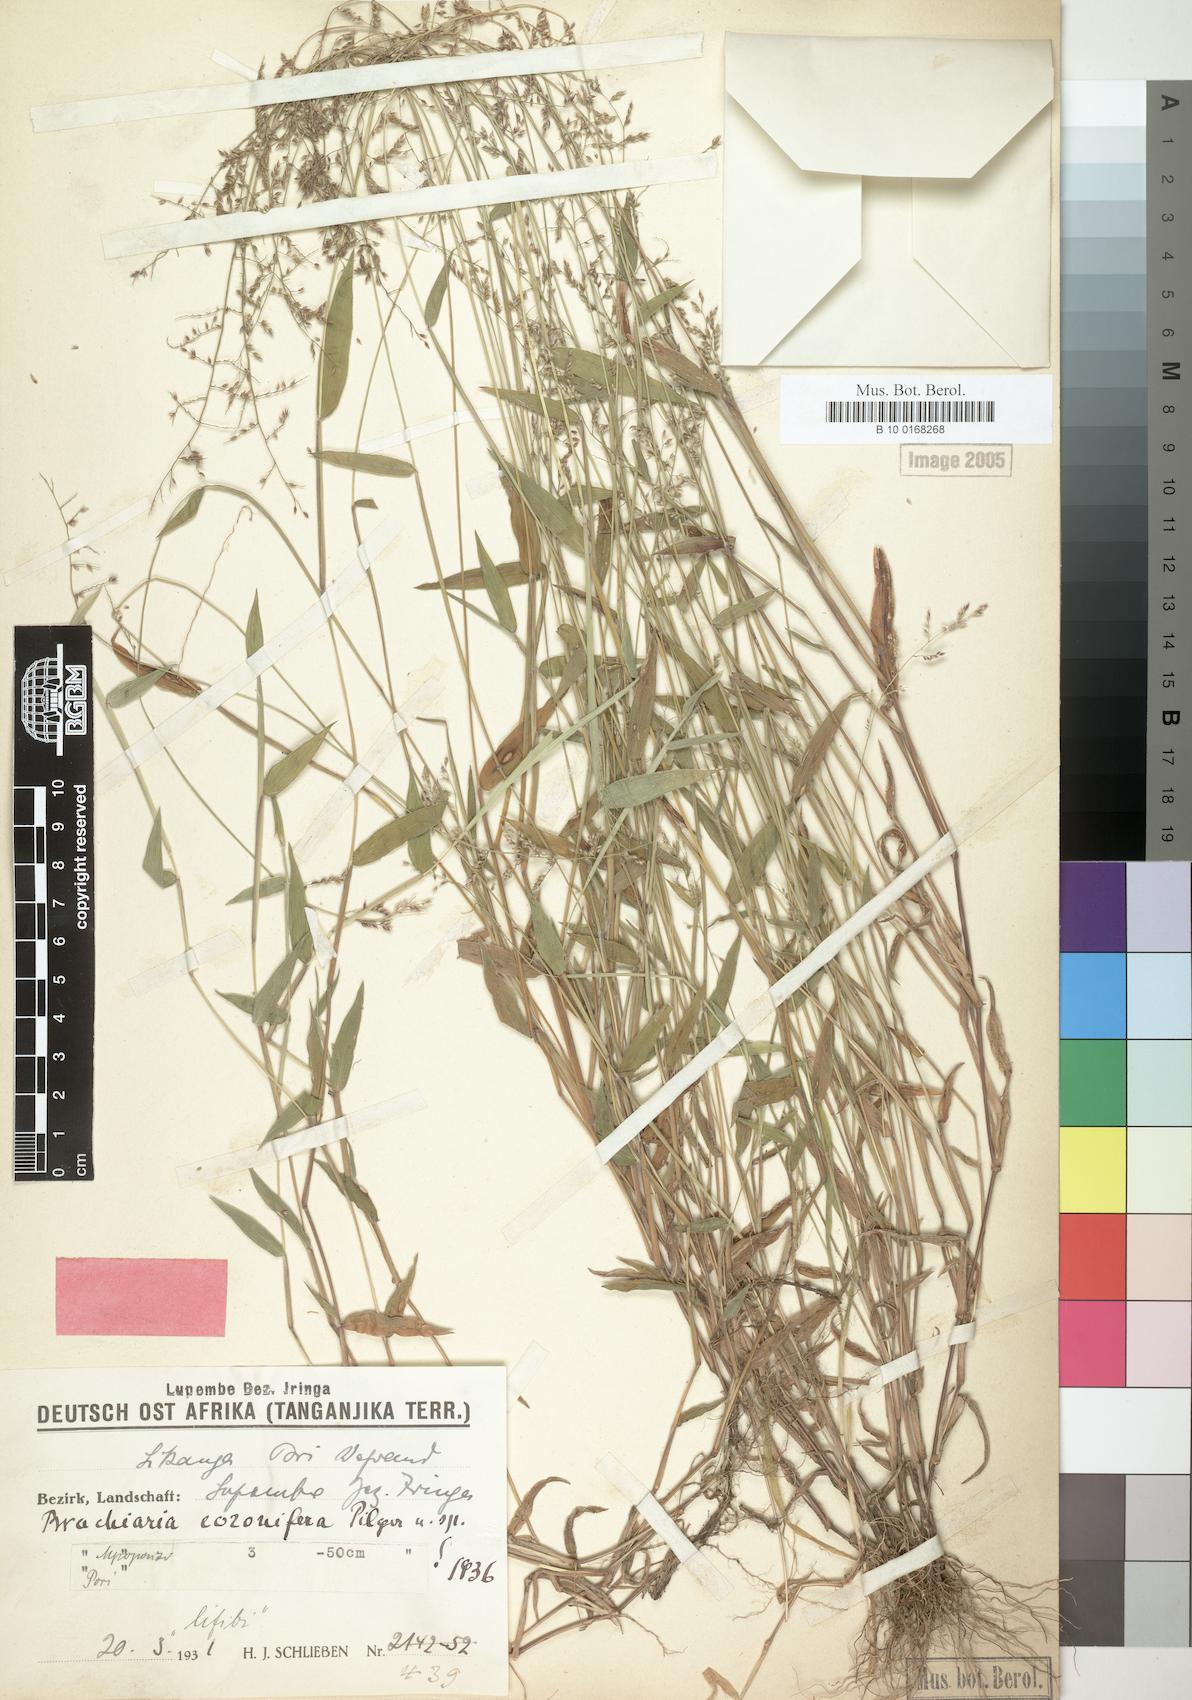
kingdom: Plantae
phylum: Tracheophyta
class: Liliopsida
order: Poales
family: Poaceae
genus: Urochloa
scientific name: Urochloa comata
